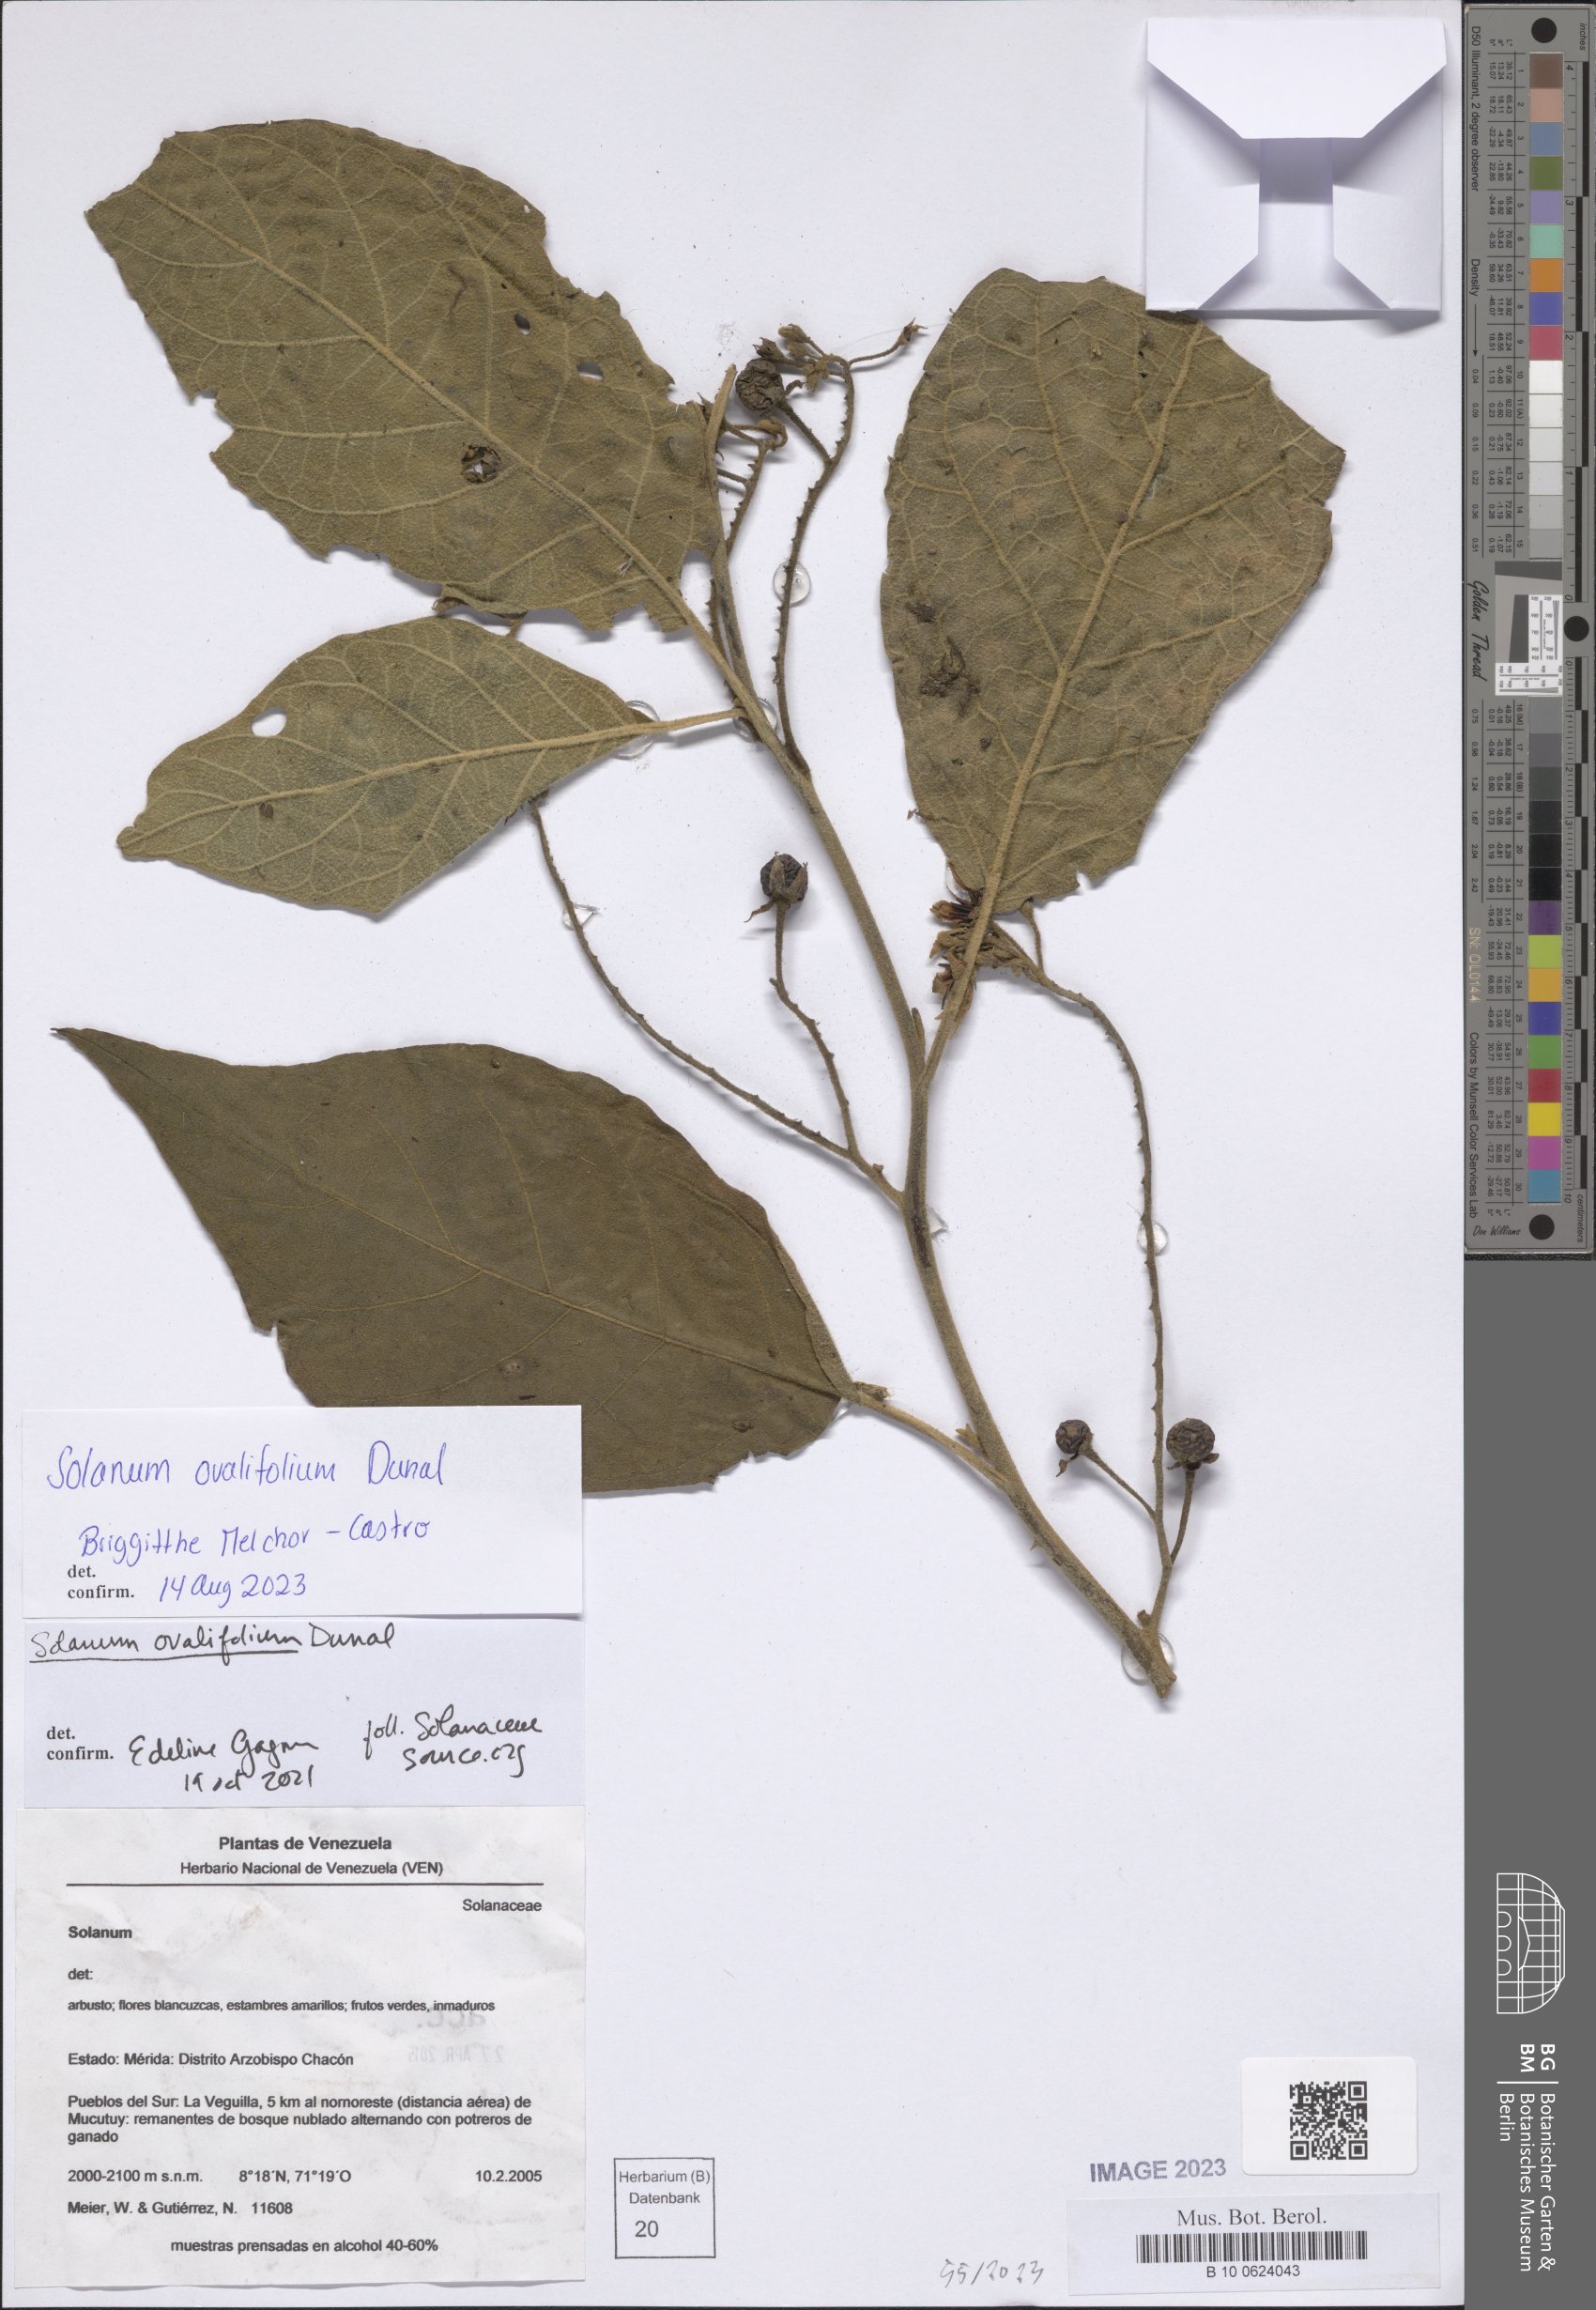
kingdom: Plantae
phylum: Tracheophyta
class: Magnoliopsida
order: Solanales
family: Solanaceae
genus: Solanum
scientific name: Solanum ovalifolium
